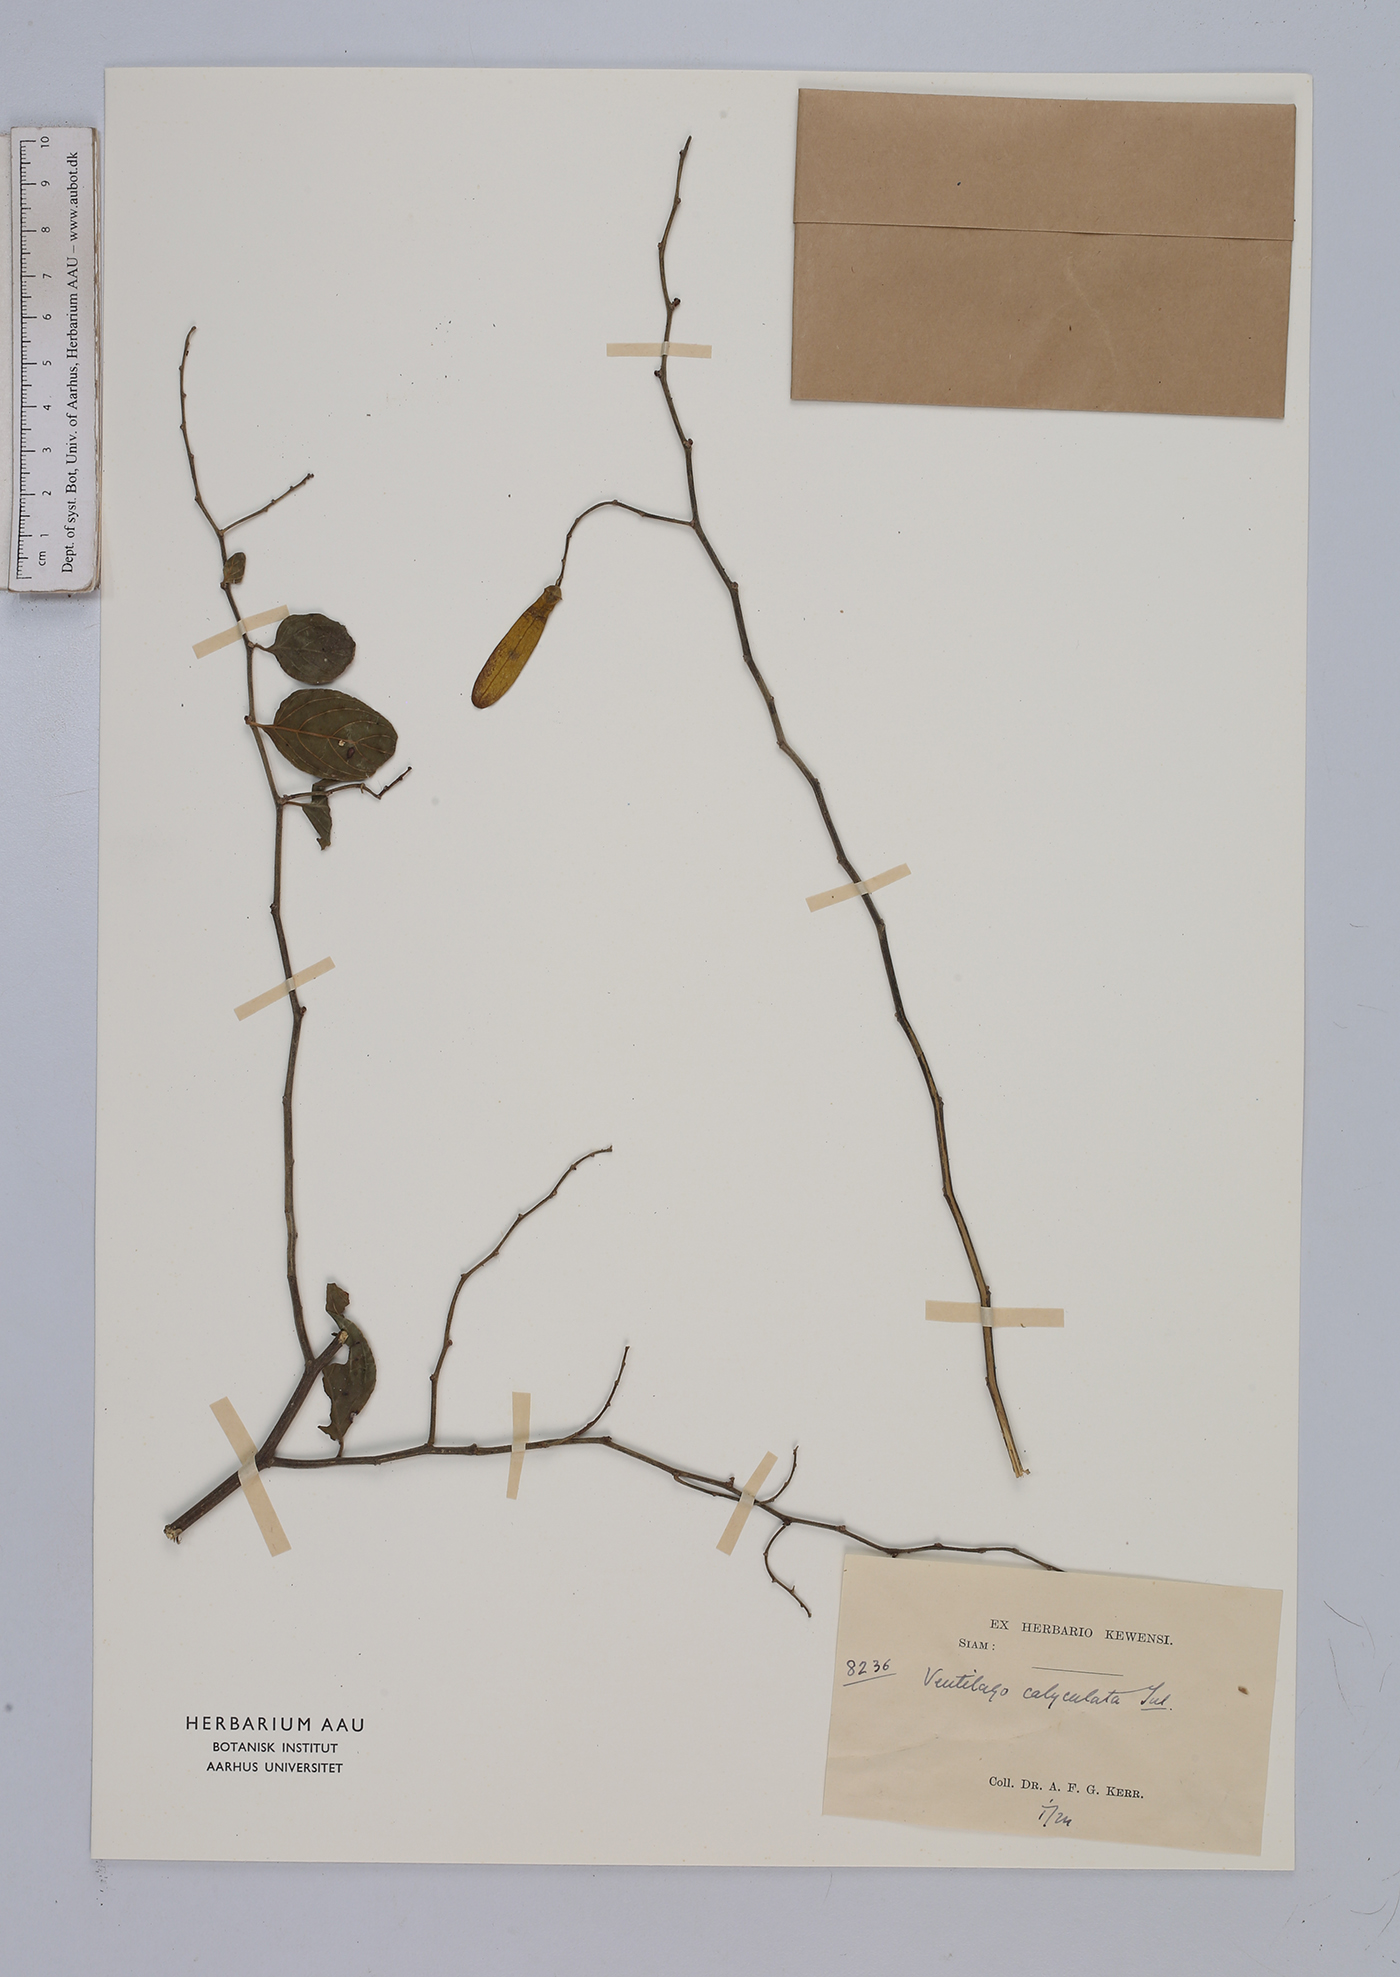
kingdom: Plantae
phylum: Tracheophyta
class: Magnoliopsida
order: Rosales
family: Rhamnaceae
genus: Ventilago
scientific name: Ventilago denticulata
